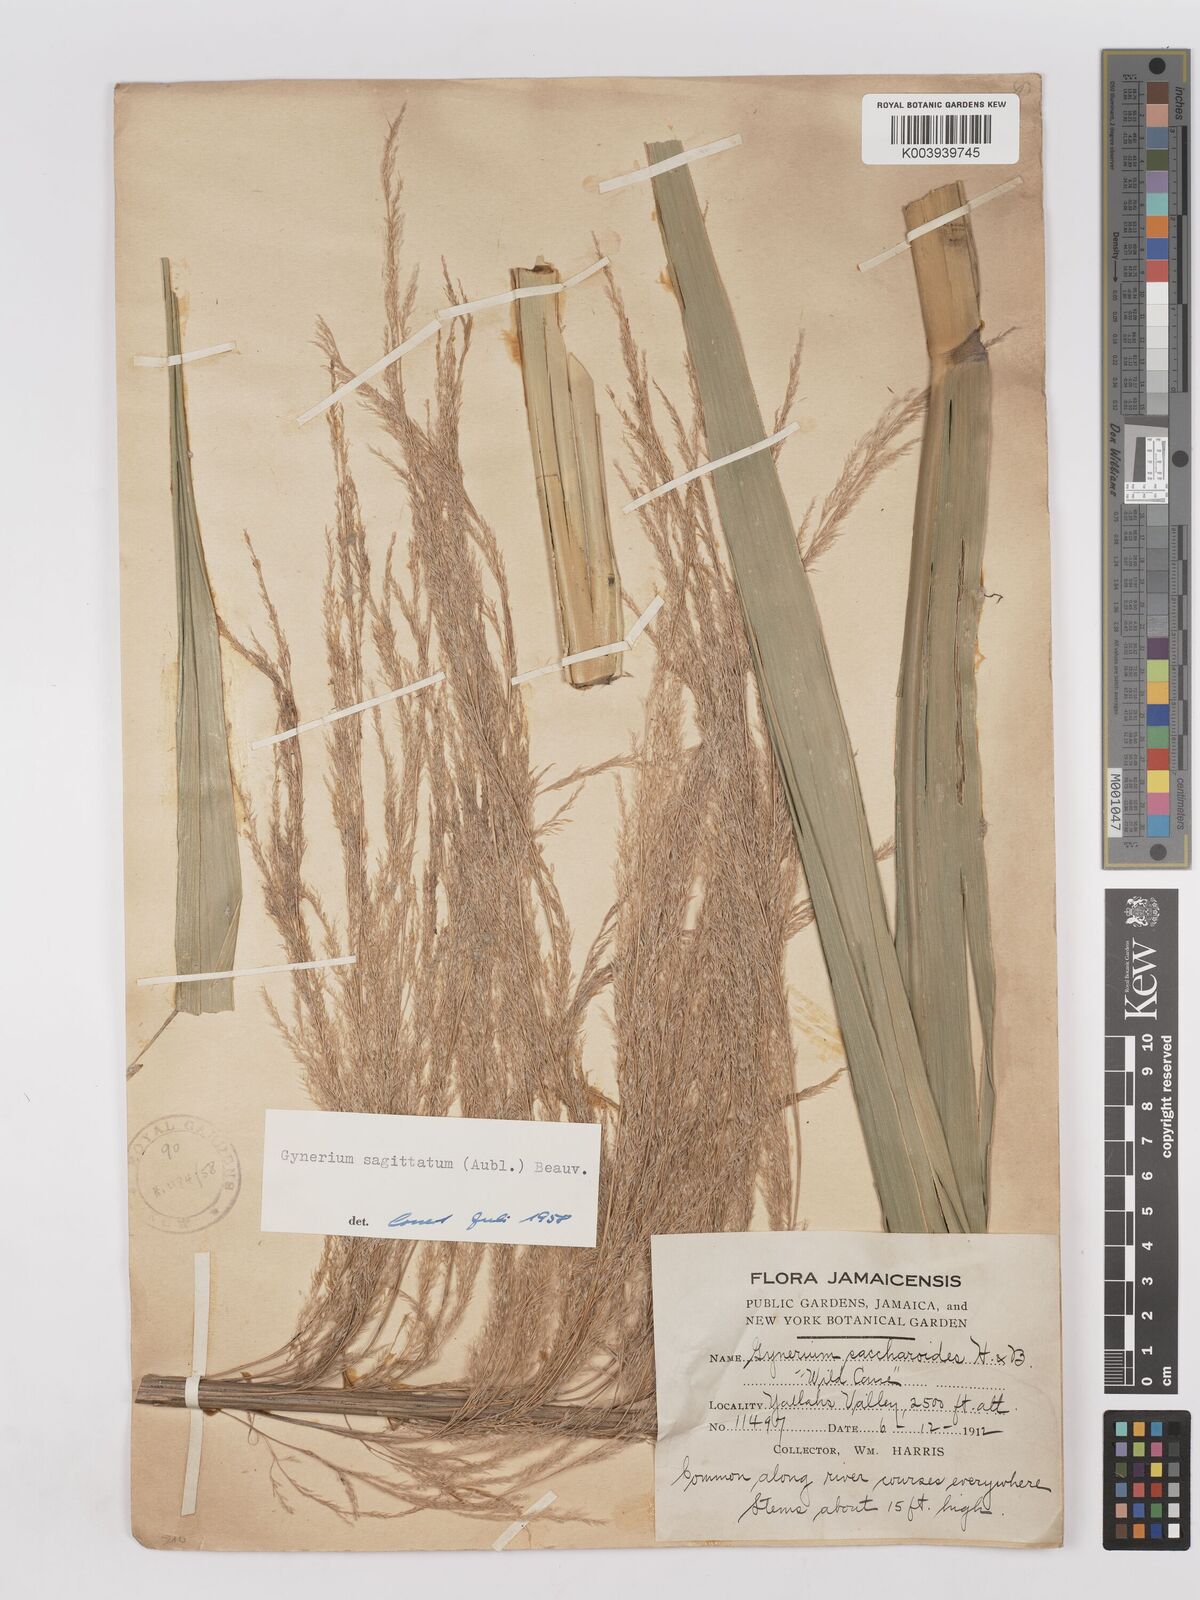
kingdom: Plantae
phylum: Tracheophyta
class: Liliopsida
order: Poales
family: Poaceae
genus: Gynerium
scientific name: Gynerium sagittatum
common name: Wild cane
